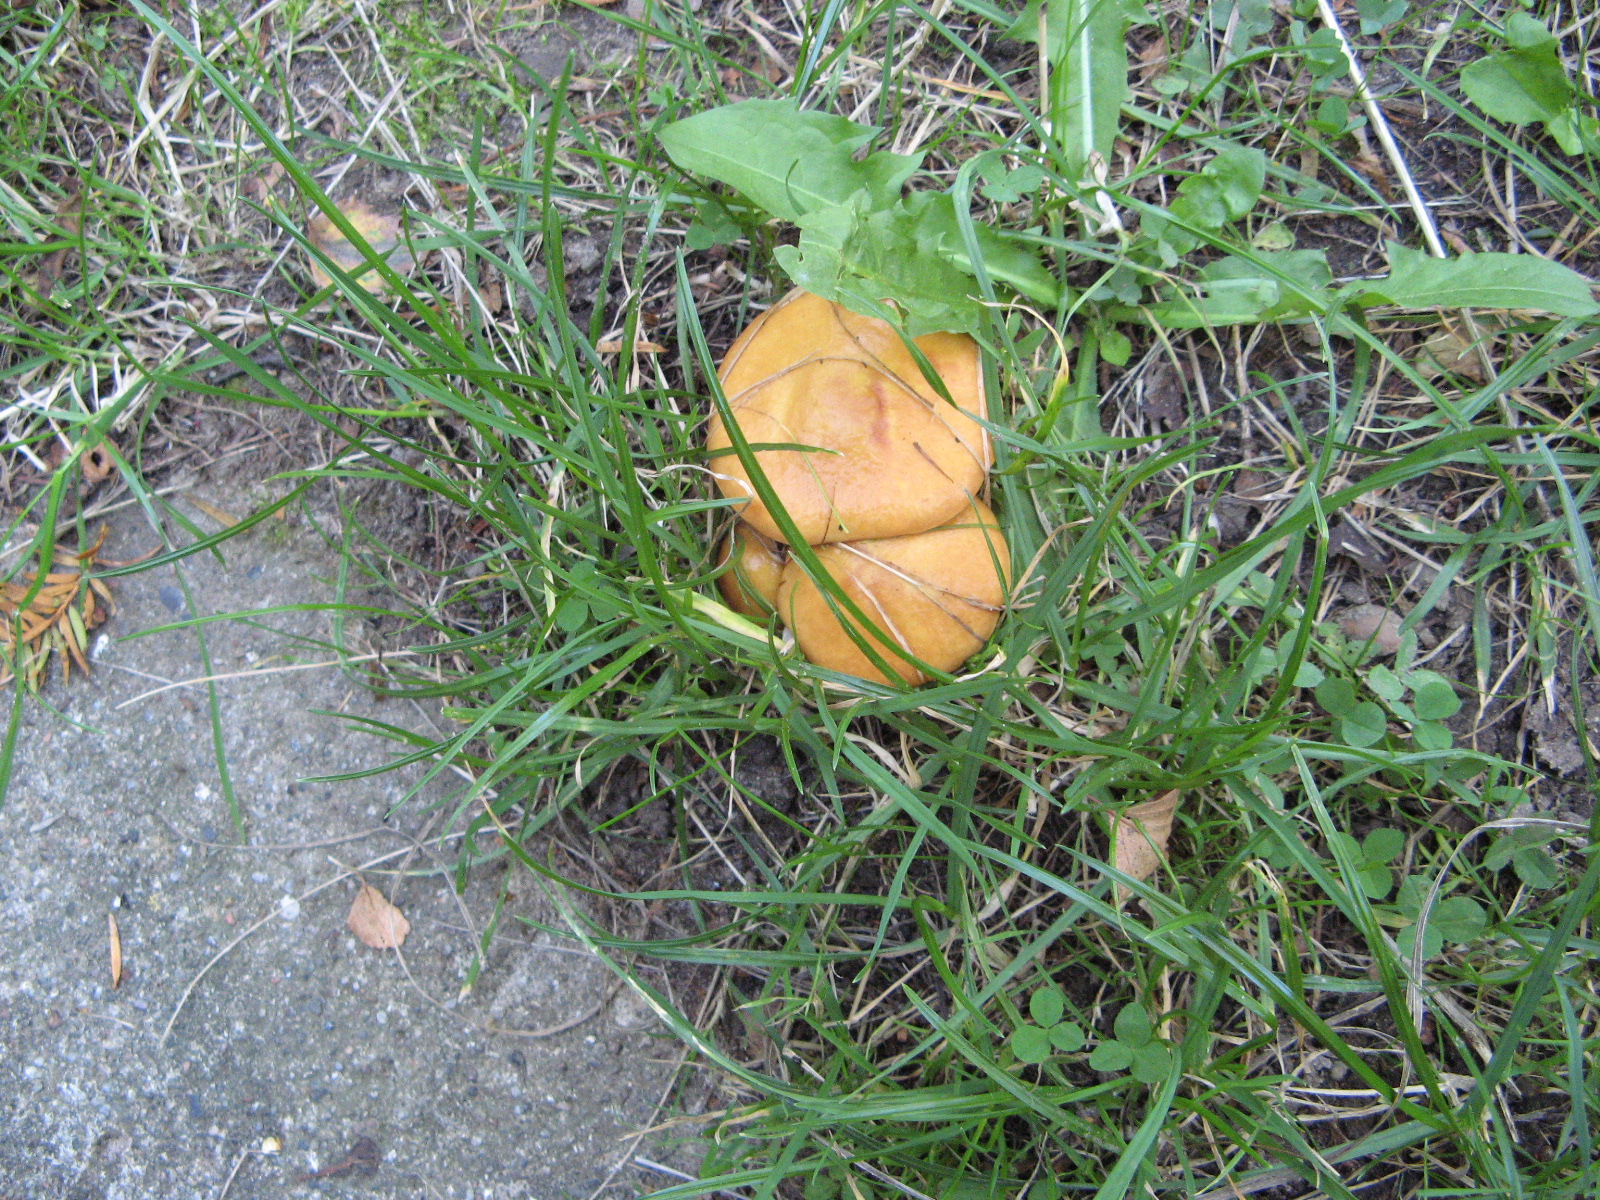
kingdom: Fungi
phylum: Basidiomycota
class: Agaricomycetes
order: Boletales
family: Suillaceae
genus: Suillus
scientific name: Suillus grevillei
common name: lærke-slimrørhat
